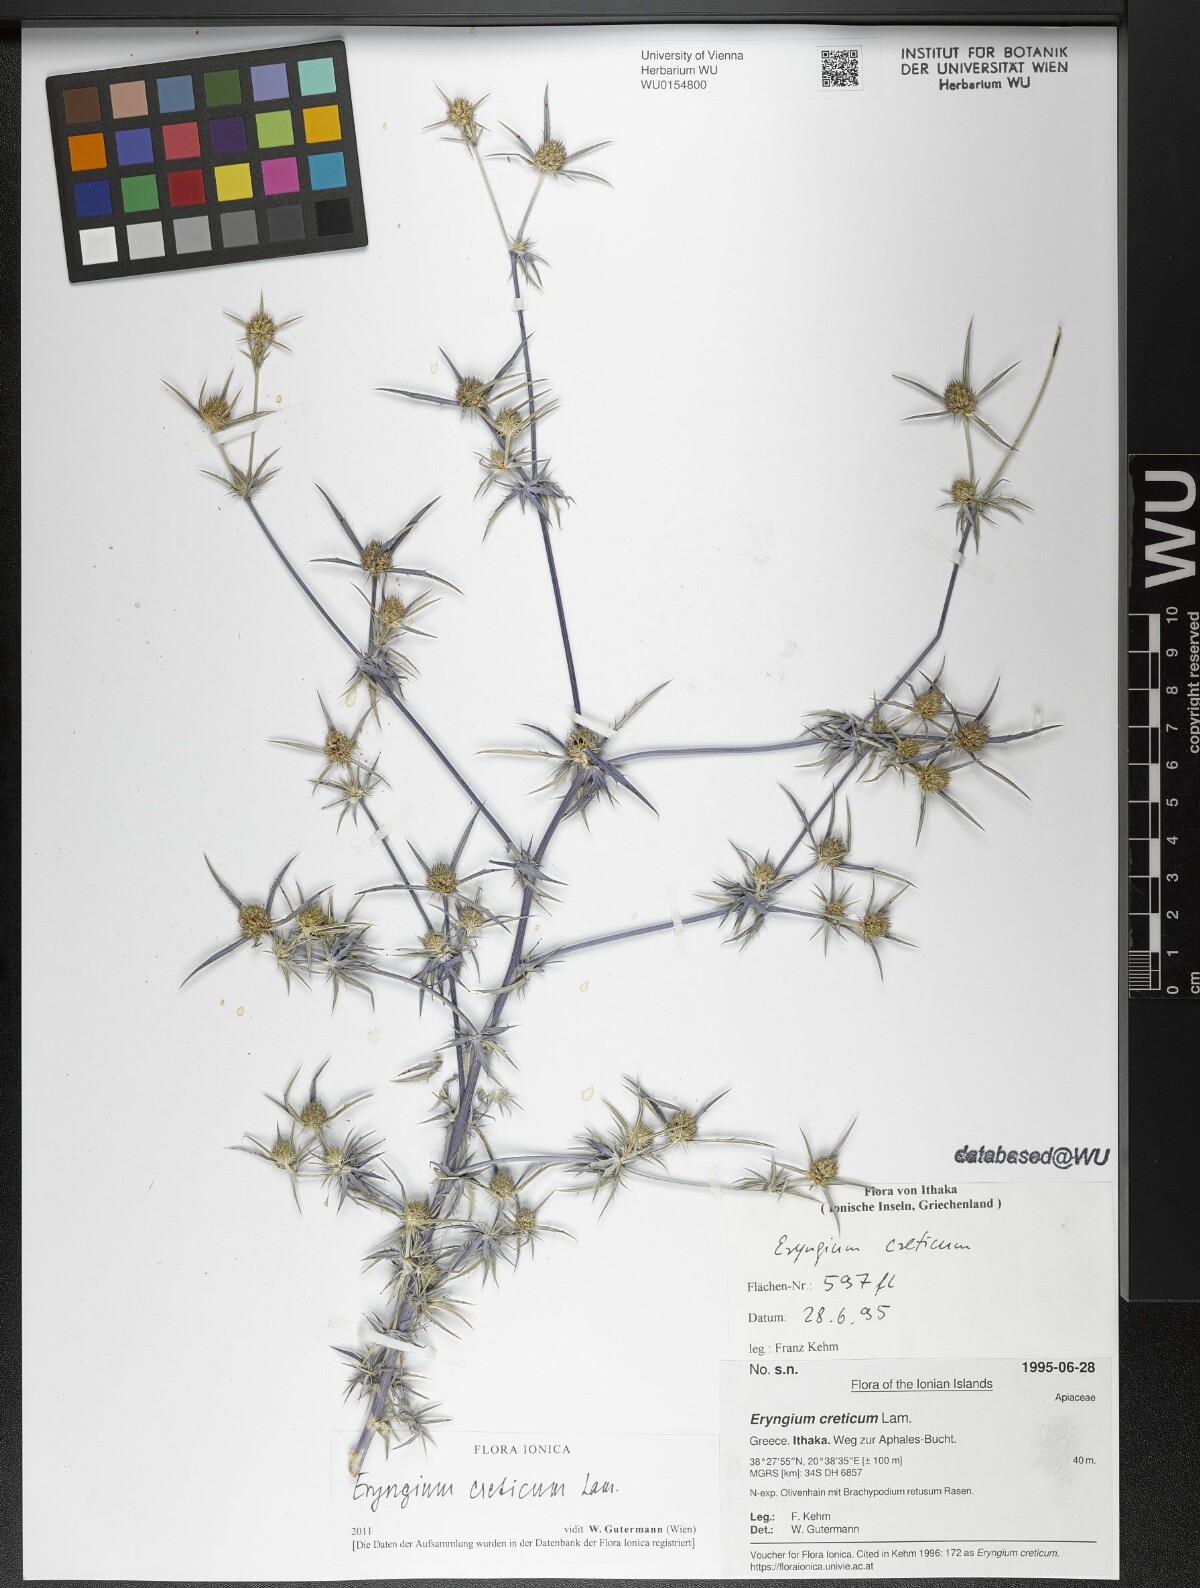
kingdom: Plantae
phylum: Tracheophyta
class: Magnoliopsida
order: Apiales
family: Apiaceae
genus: Eryngium
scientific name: Eryngium creticum
